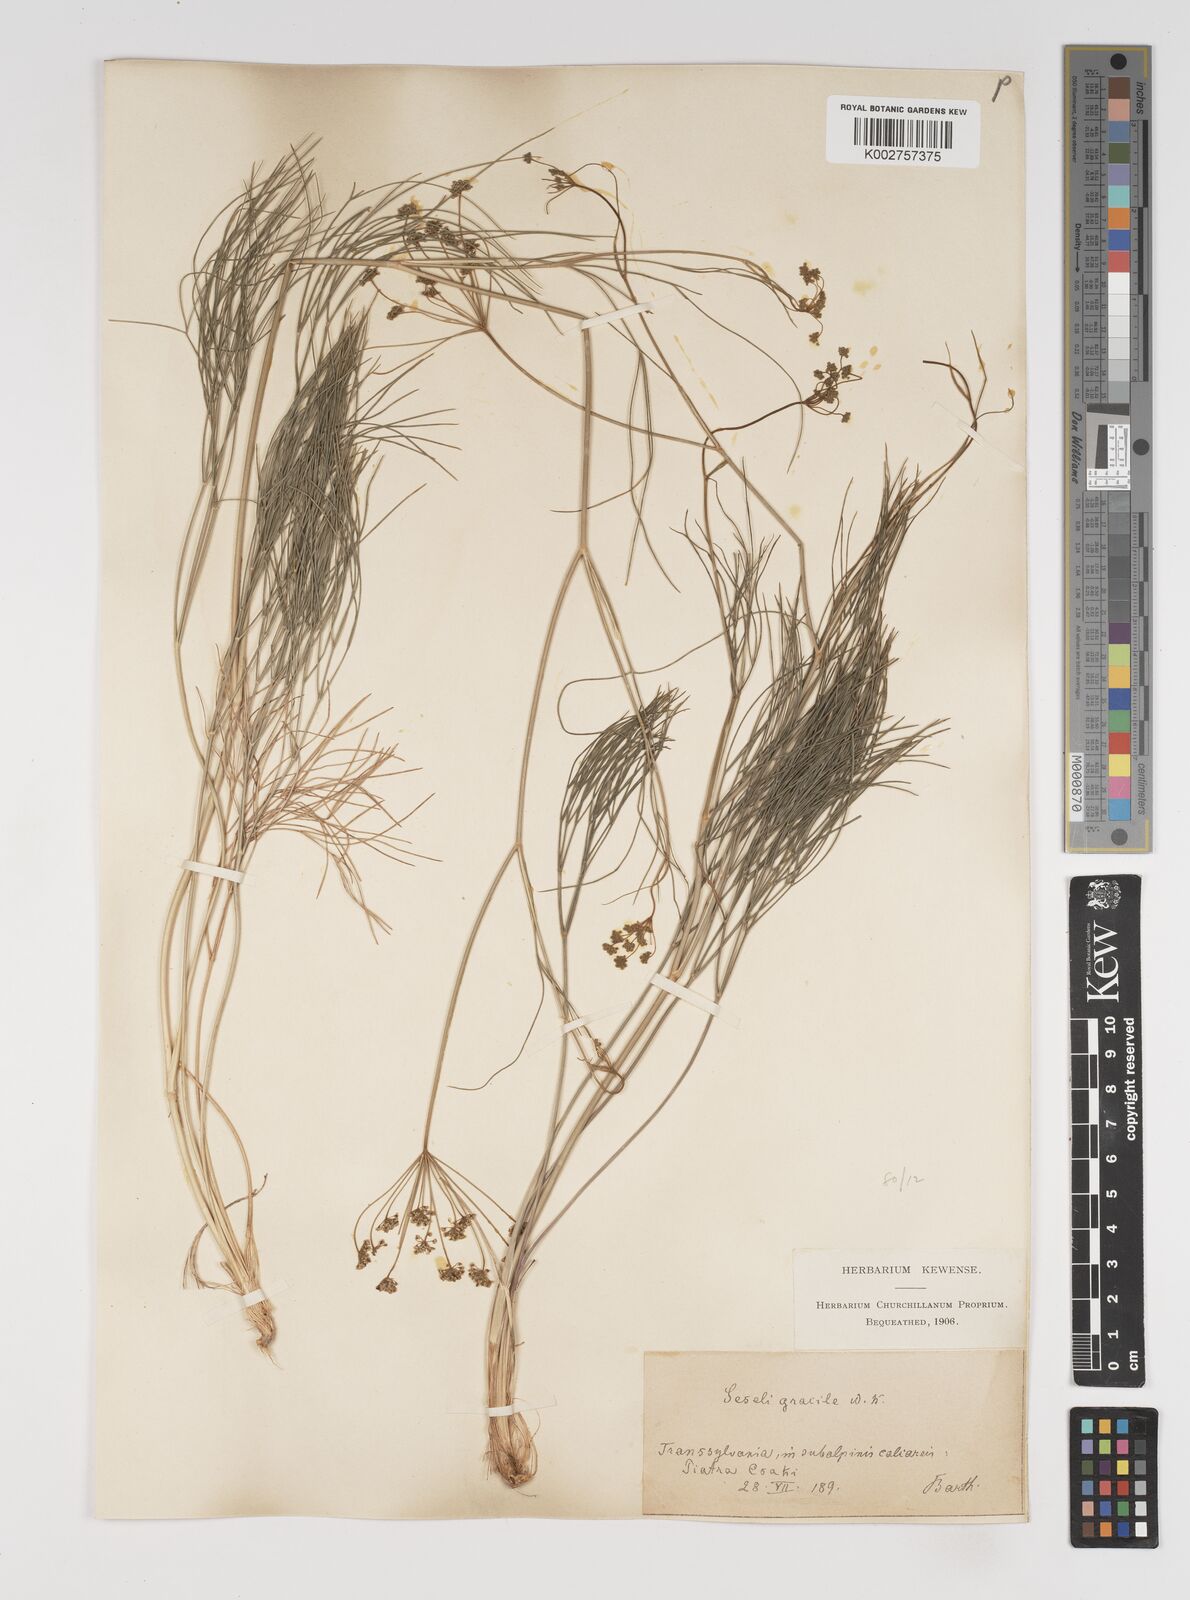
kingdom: Plantae
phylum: Tracheophyta
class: Magnoliopsida
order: Apiales
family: Apiaceae
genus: Seseli
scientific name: Seseli gracile
